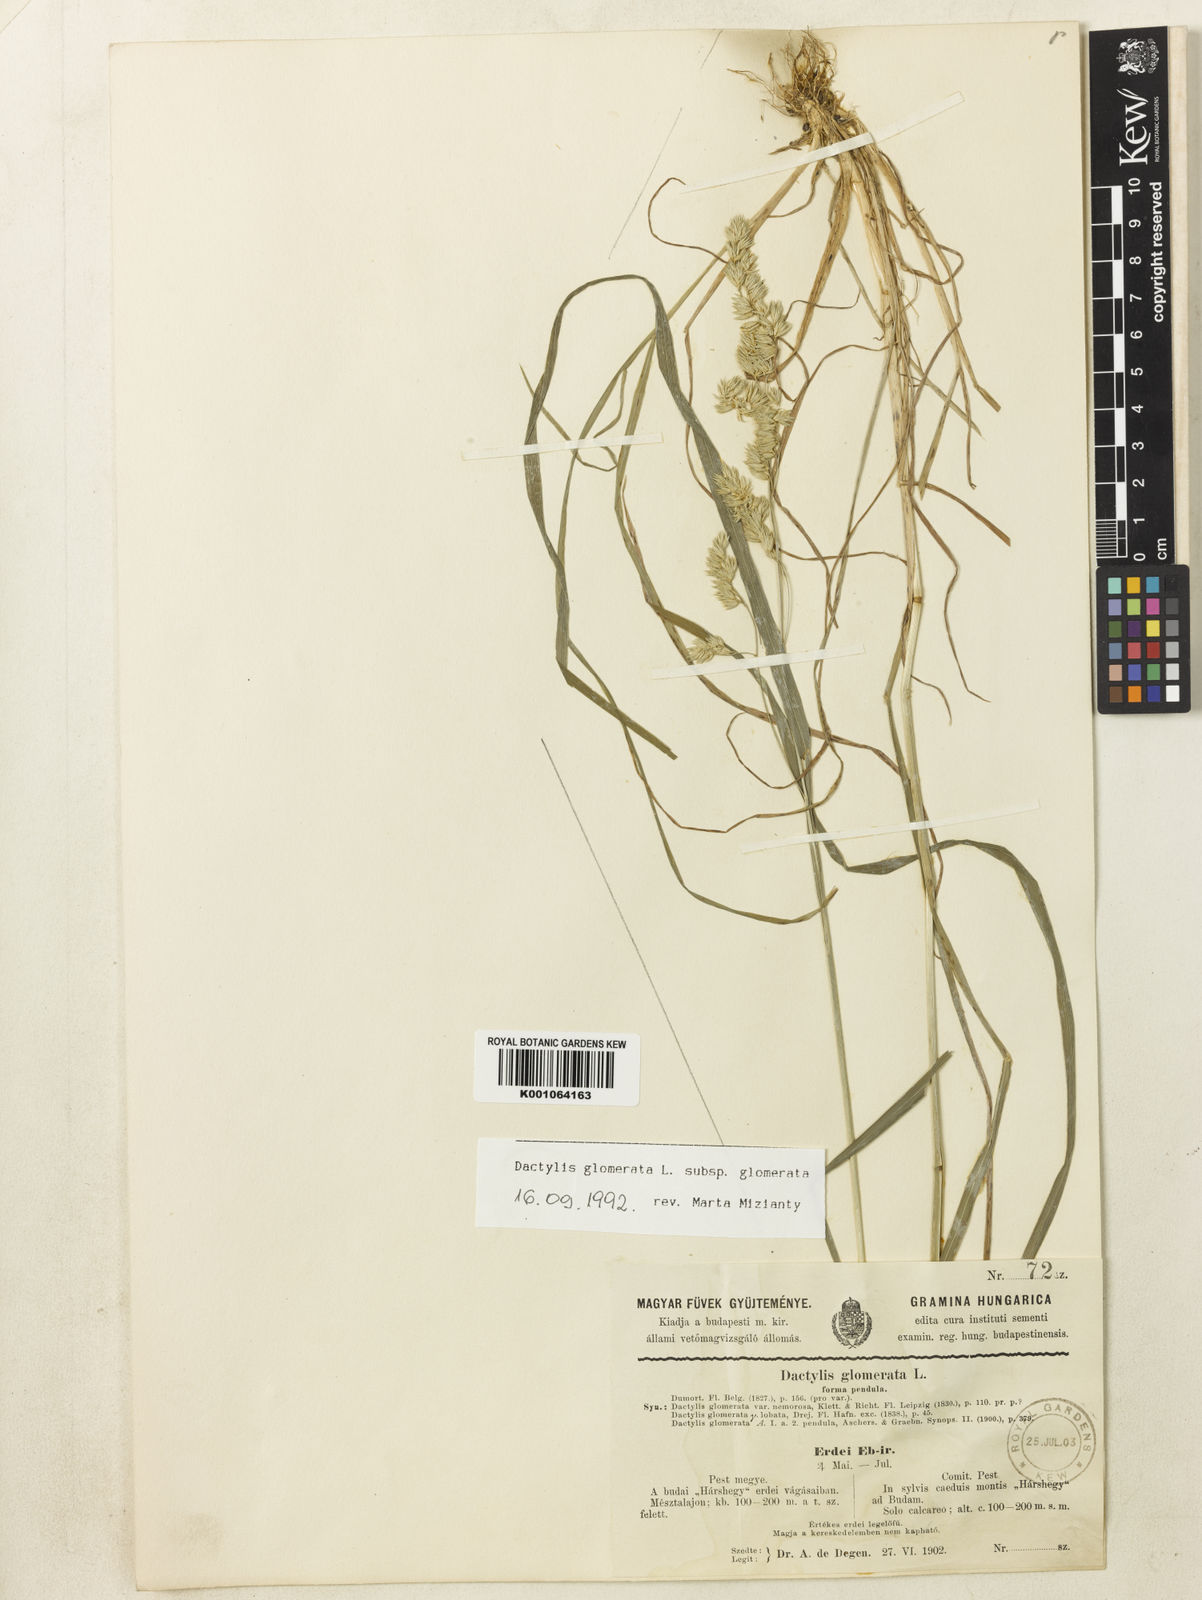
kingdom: Plantae
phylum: Tracheophyta
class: Liliopsida
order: Poales
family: Poaceae
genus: Dactylis
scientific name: Dactylis glomerata
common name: Orchardgrass
